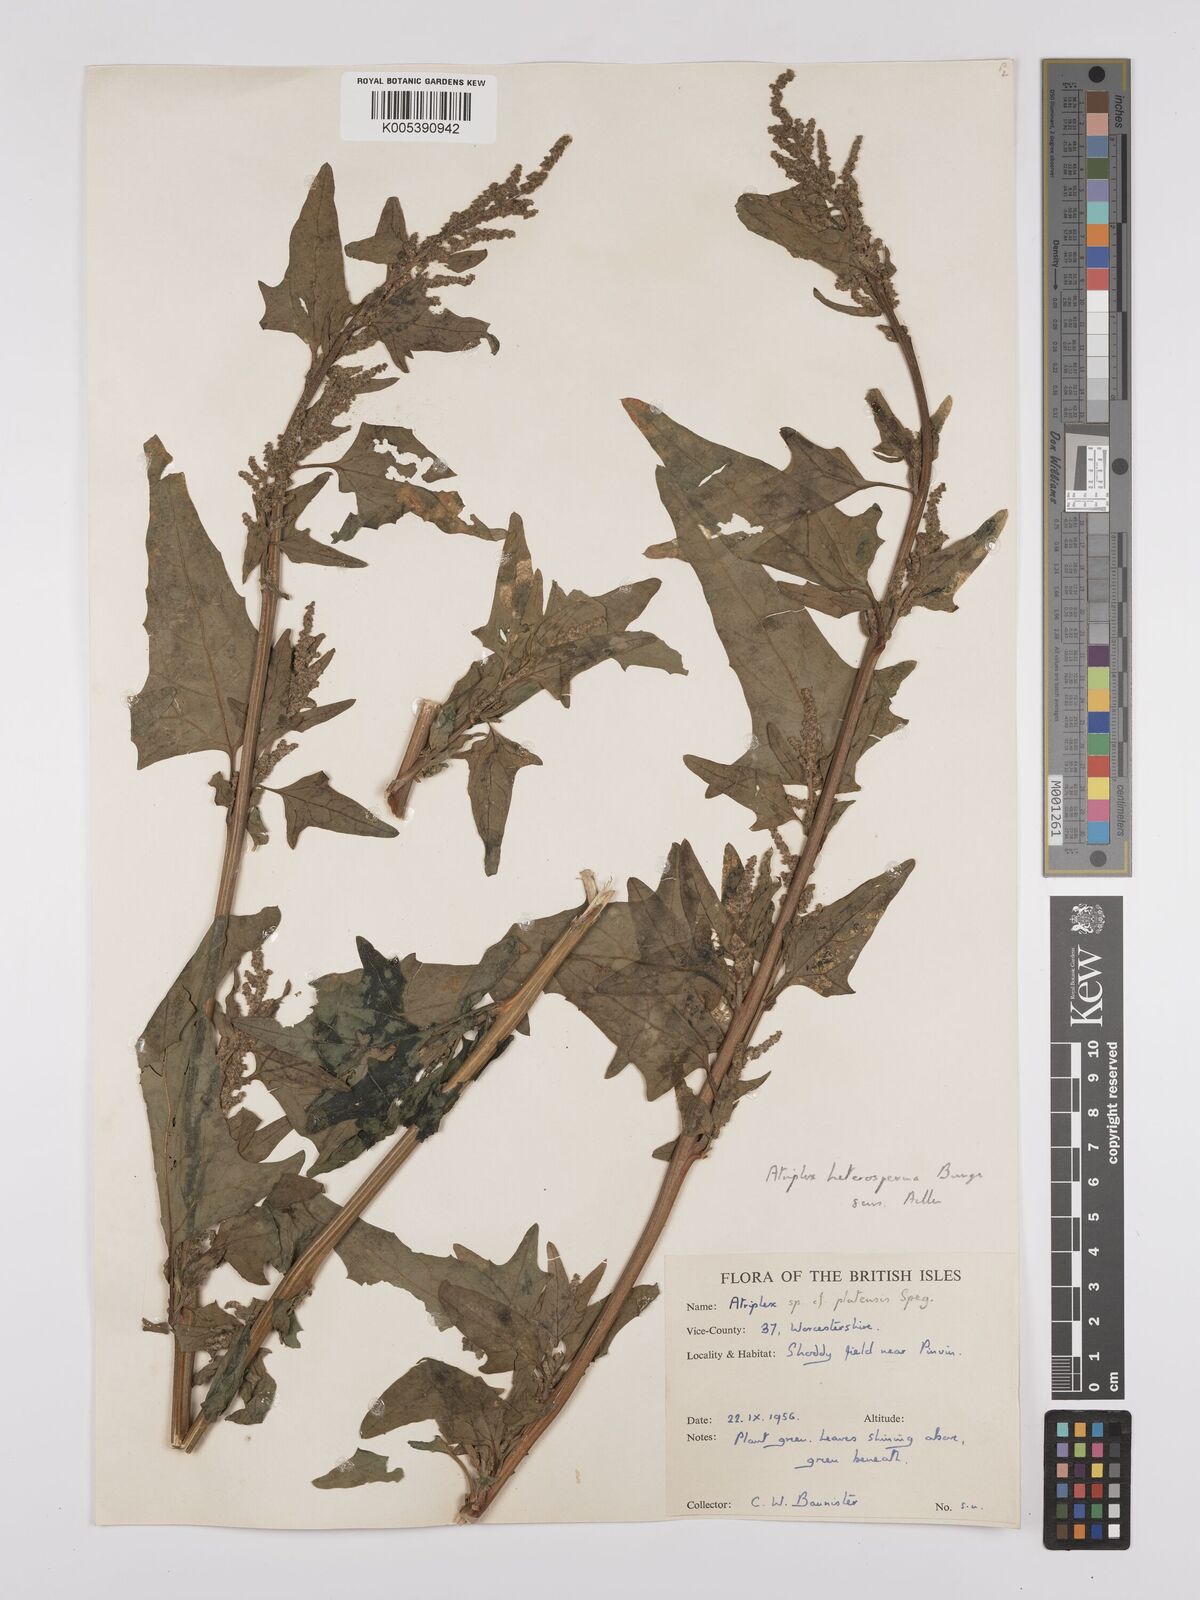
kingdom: Plantae
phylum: Tracheophyta
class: Magnoliopsida
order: Caryophyllales
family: Amaranthaceae
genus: Atriplex
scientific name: Atriplex micrantha
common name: Twoscale saltbush
